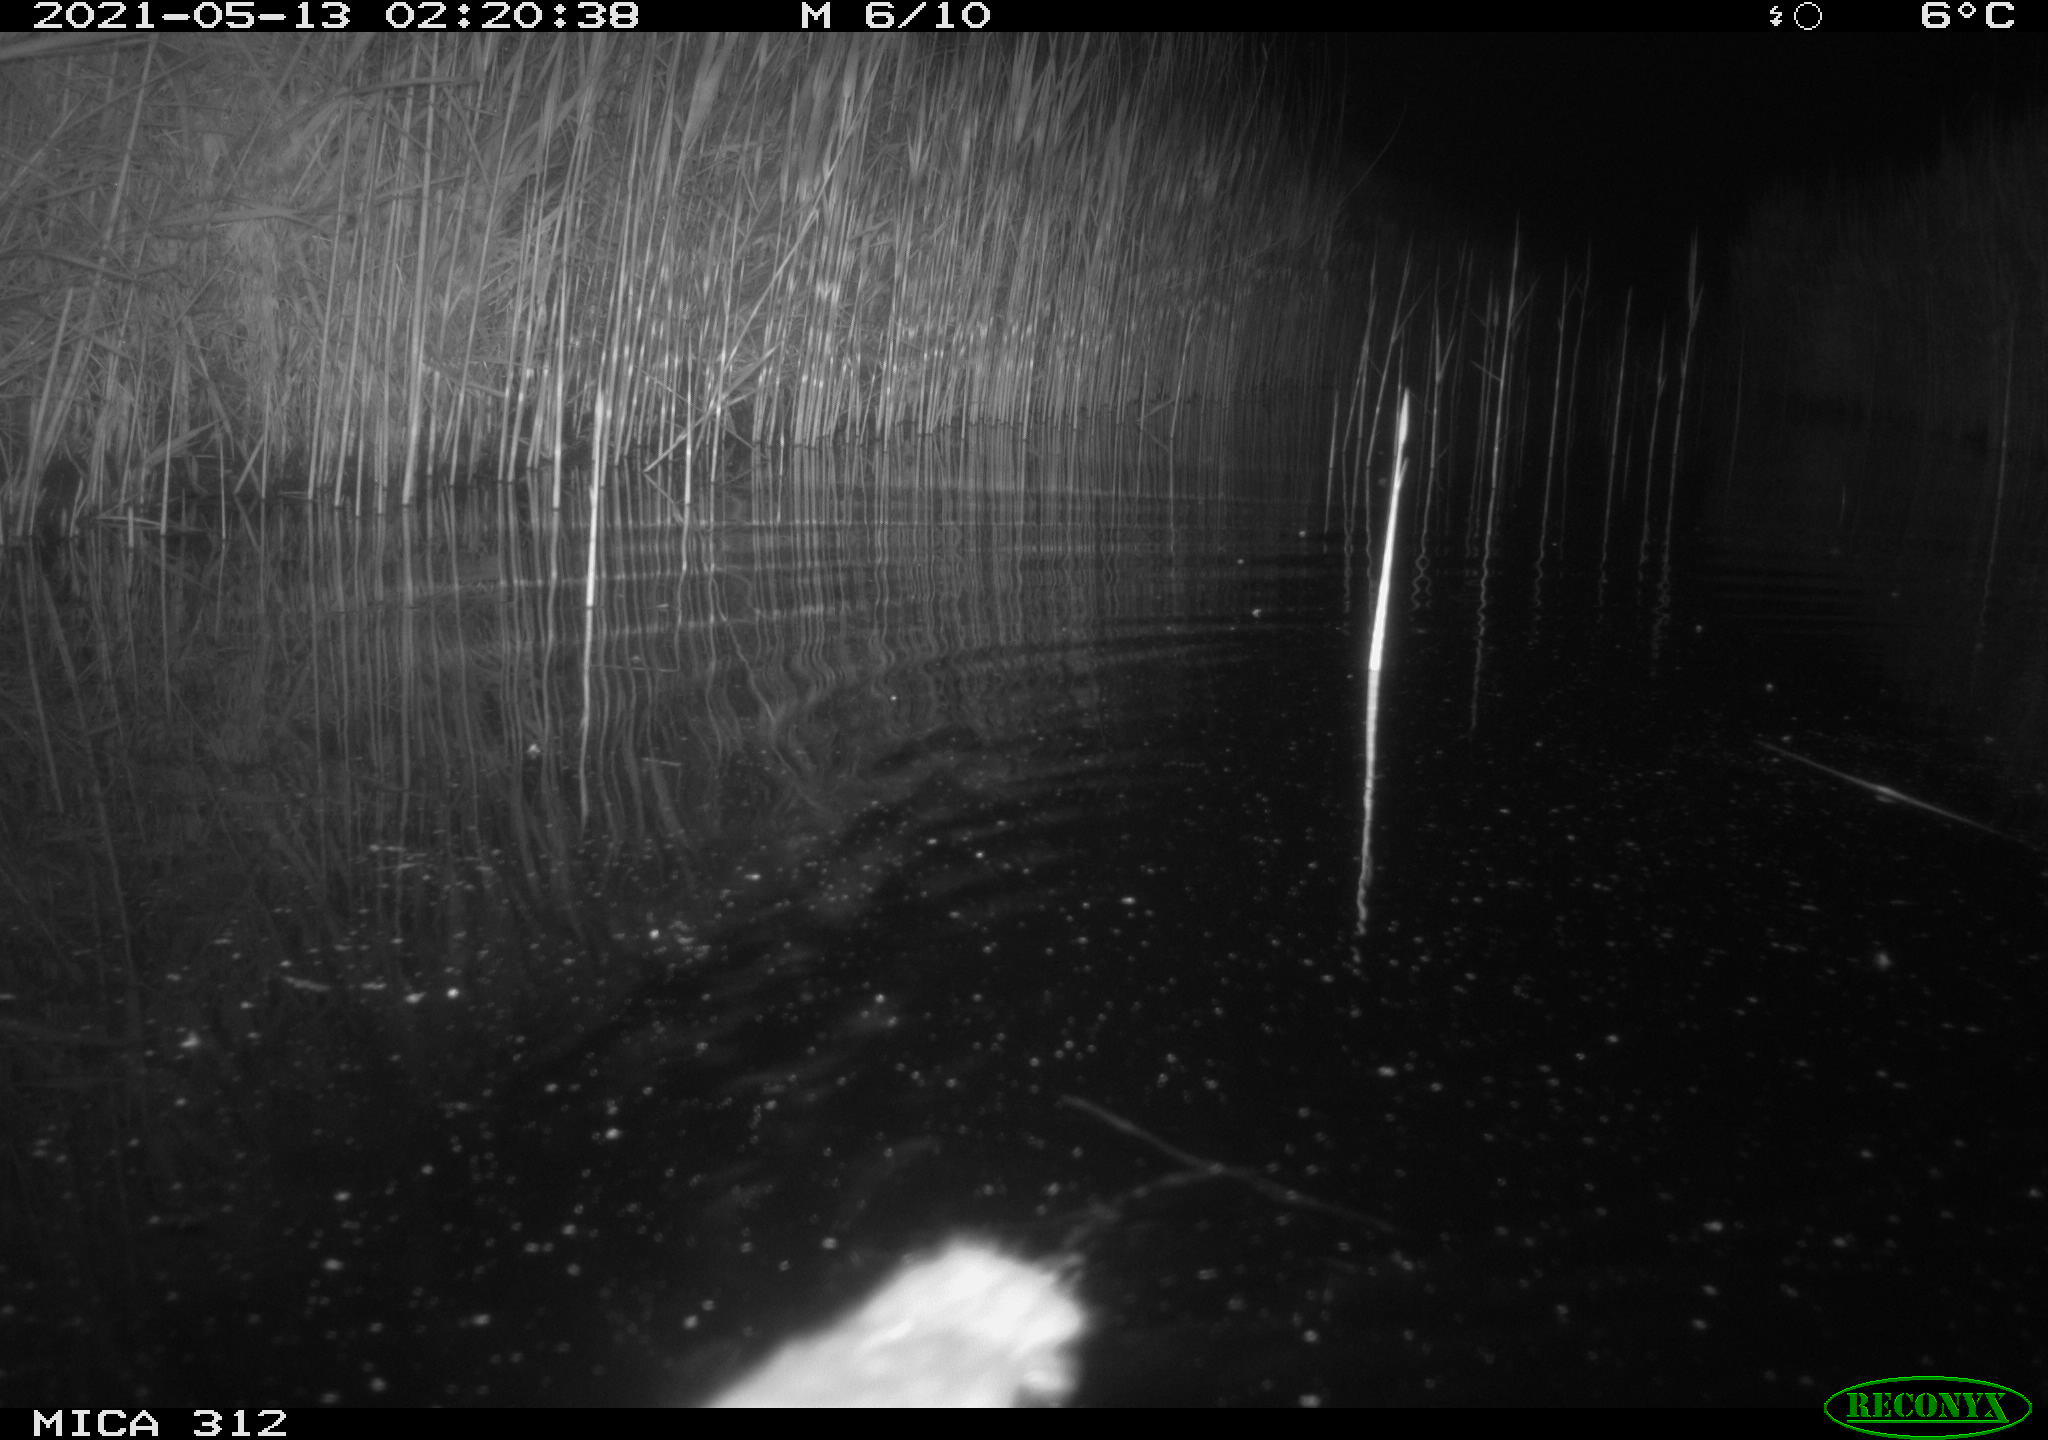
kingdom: Animalia
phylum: Chordata
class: Mammalia
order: Rodentia
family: Muridae
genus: Rattus
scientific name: Rattus norvegicus
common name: Brown rat
